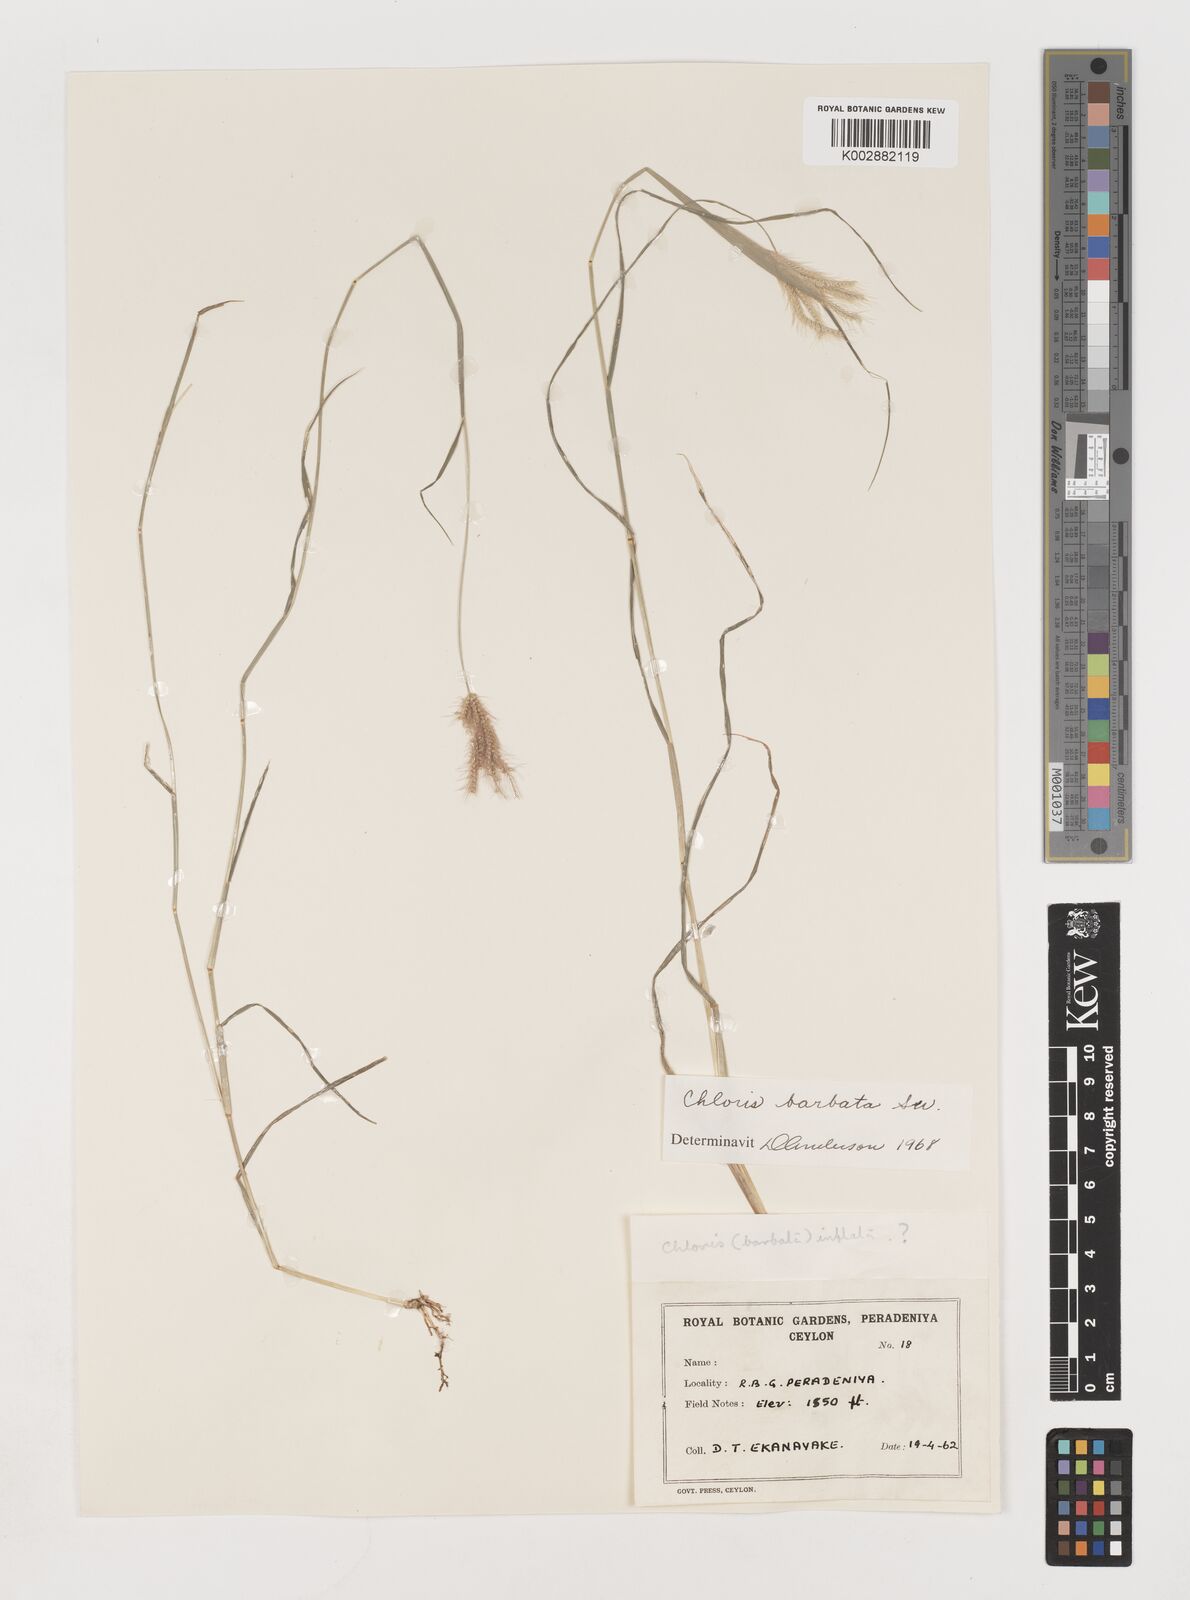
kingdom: Plantae
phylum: Tracheophyta
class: Liliopsida
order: Poales
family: Poaceae
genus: Chloris
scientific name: Chloris barbata
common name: Swollen fingergrass
